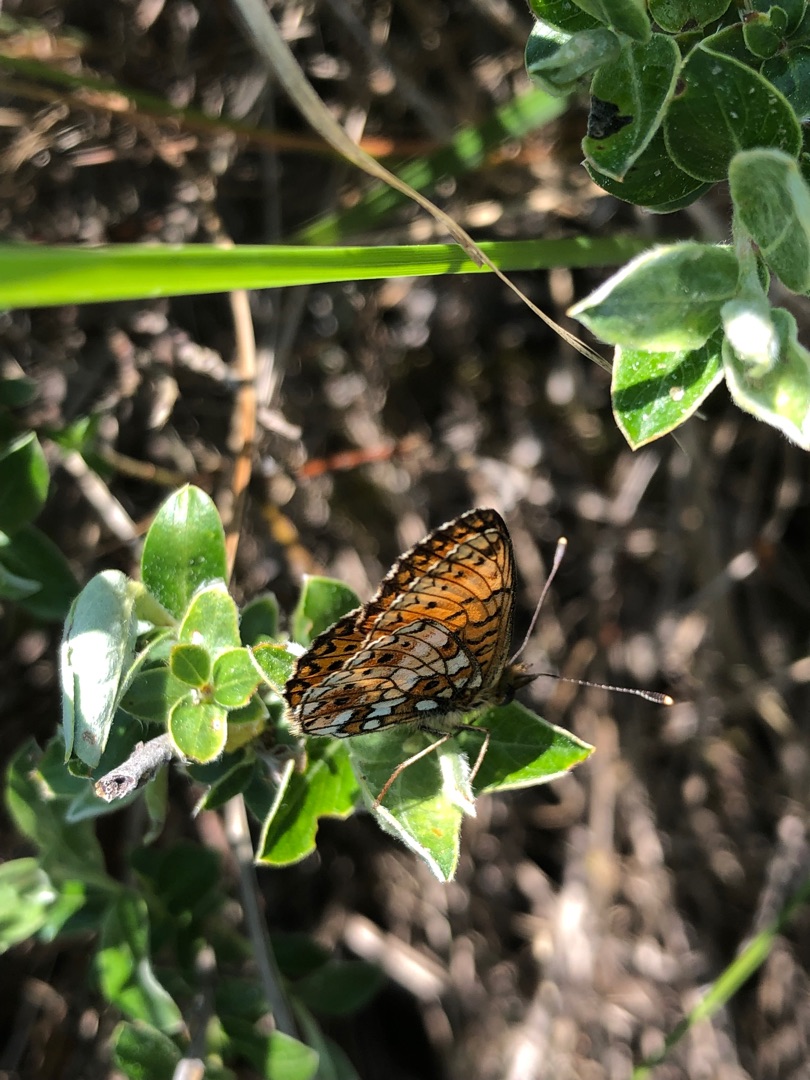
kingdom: Animalia
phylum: Arthropoda
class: Insecta
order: Lepidoptera
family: Nymphalidae
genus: Boloria
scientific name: Boloria selene
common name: Brunlig perlemorsommerfugl
